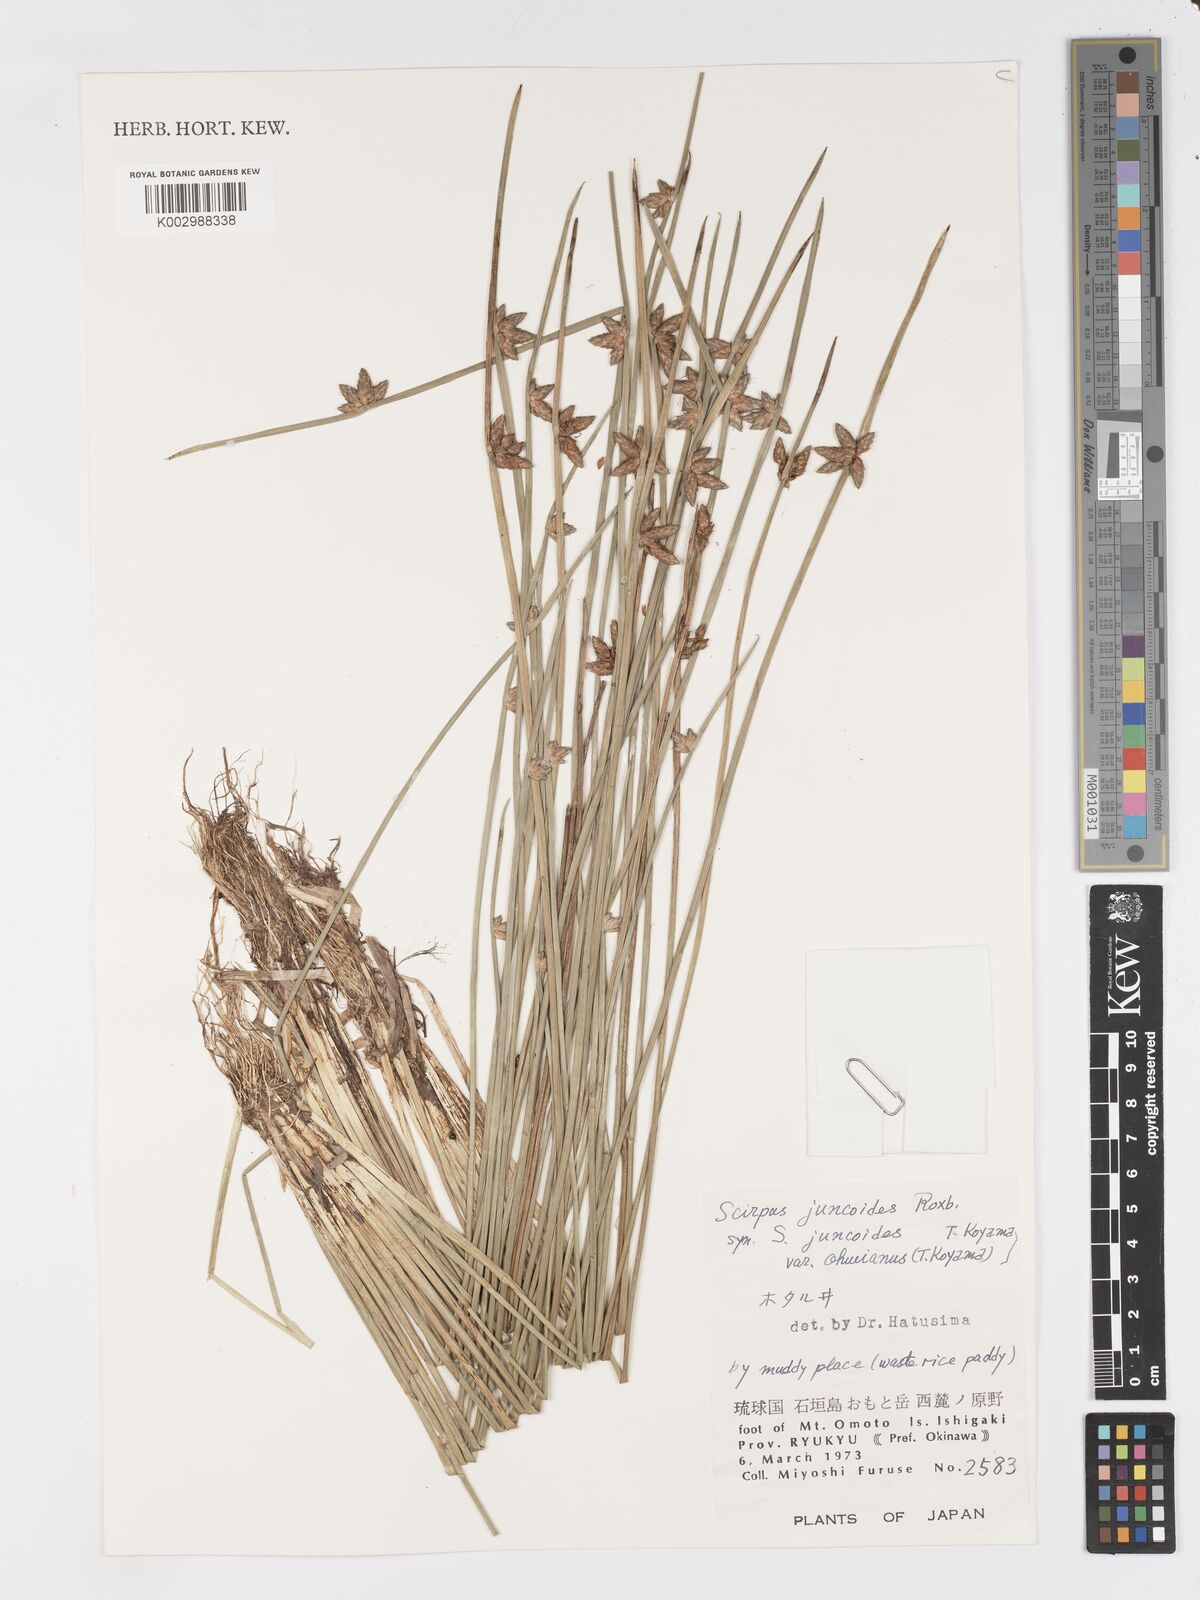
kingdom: Plantae
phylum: Tracheophyta
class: Liliopsida
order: Poales
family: Cyperaceae
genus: Schoenoplectiella
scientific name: Schoenoplectiella juncoides
